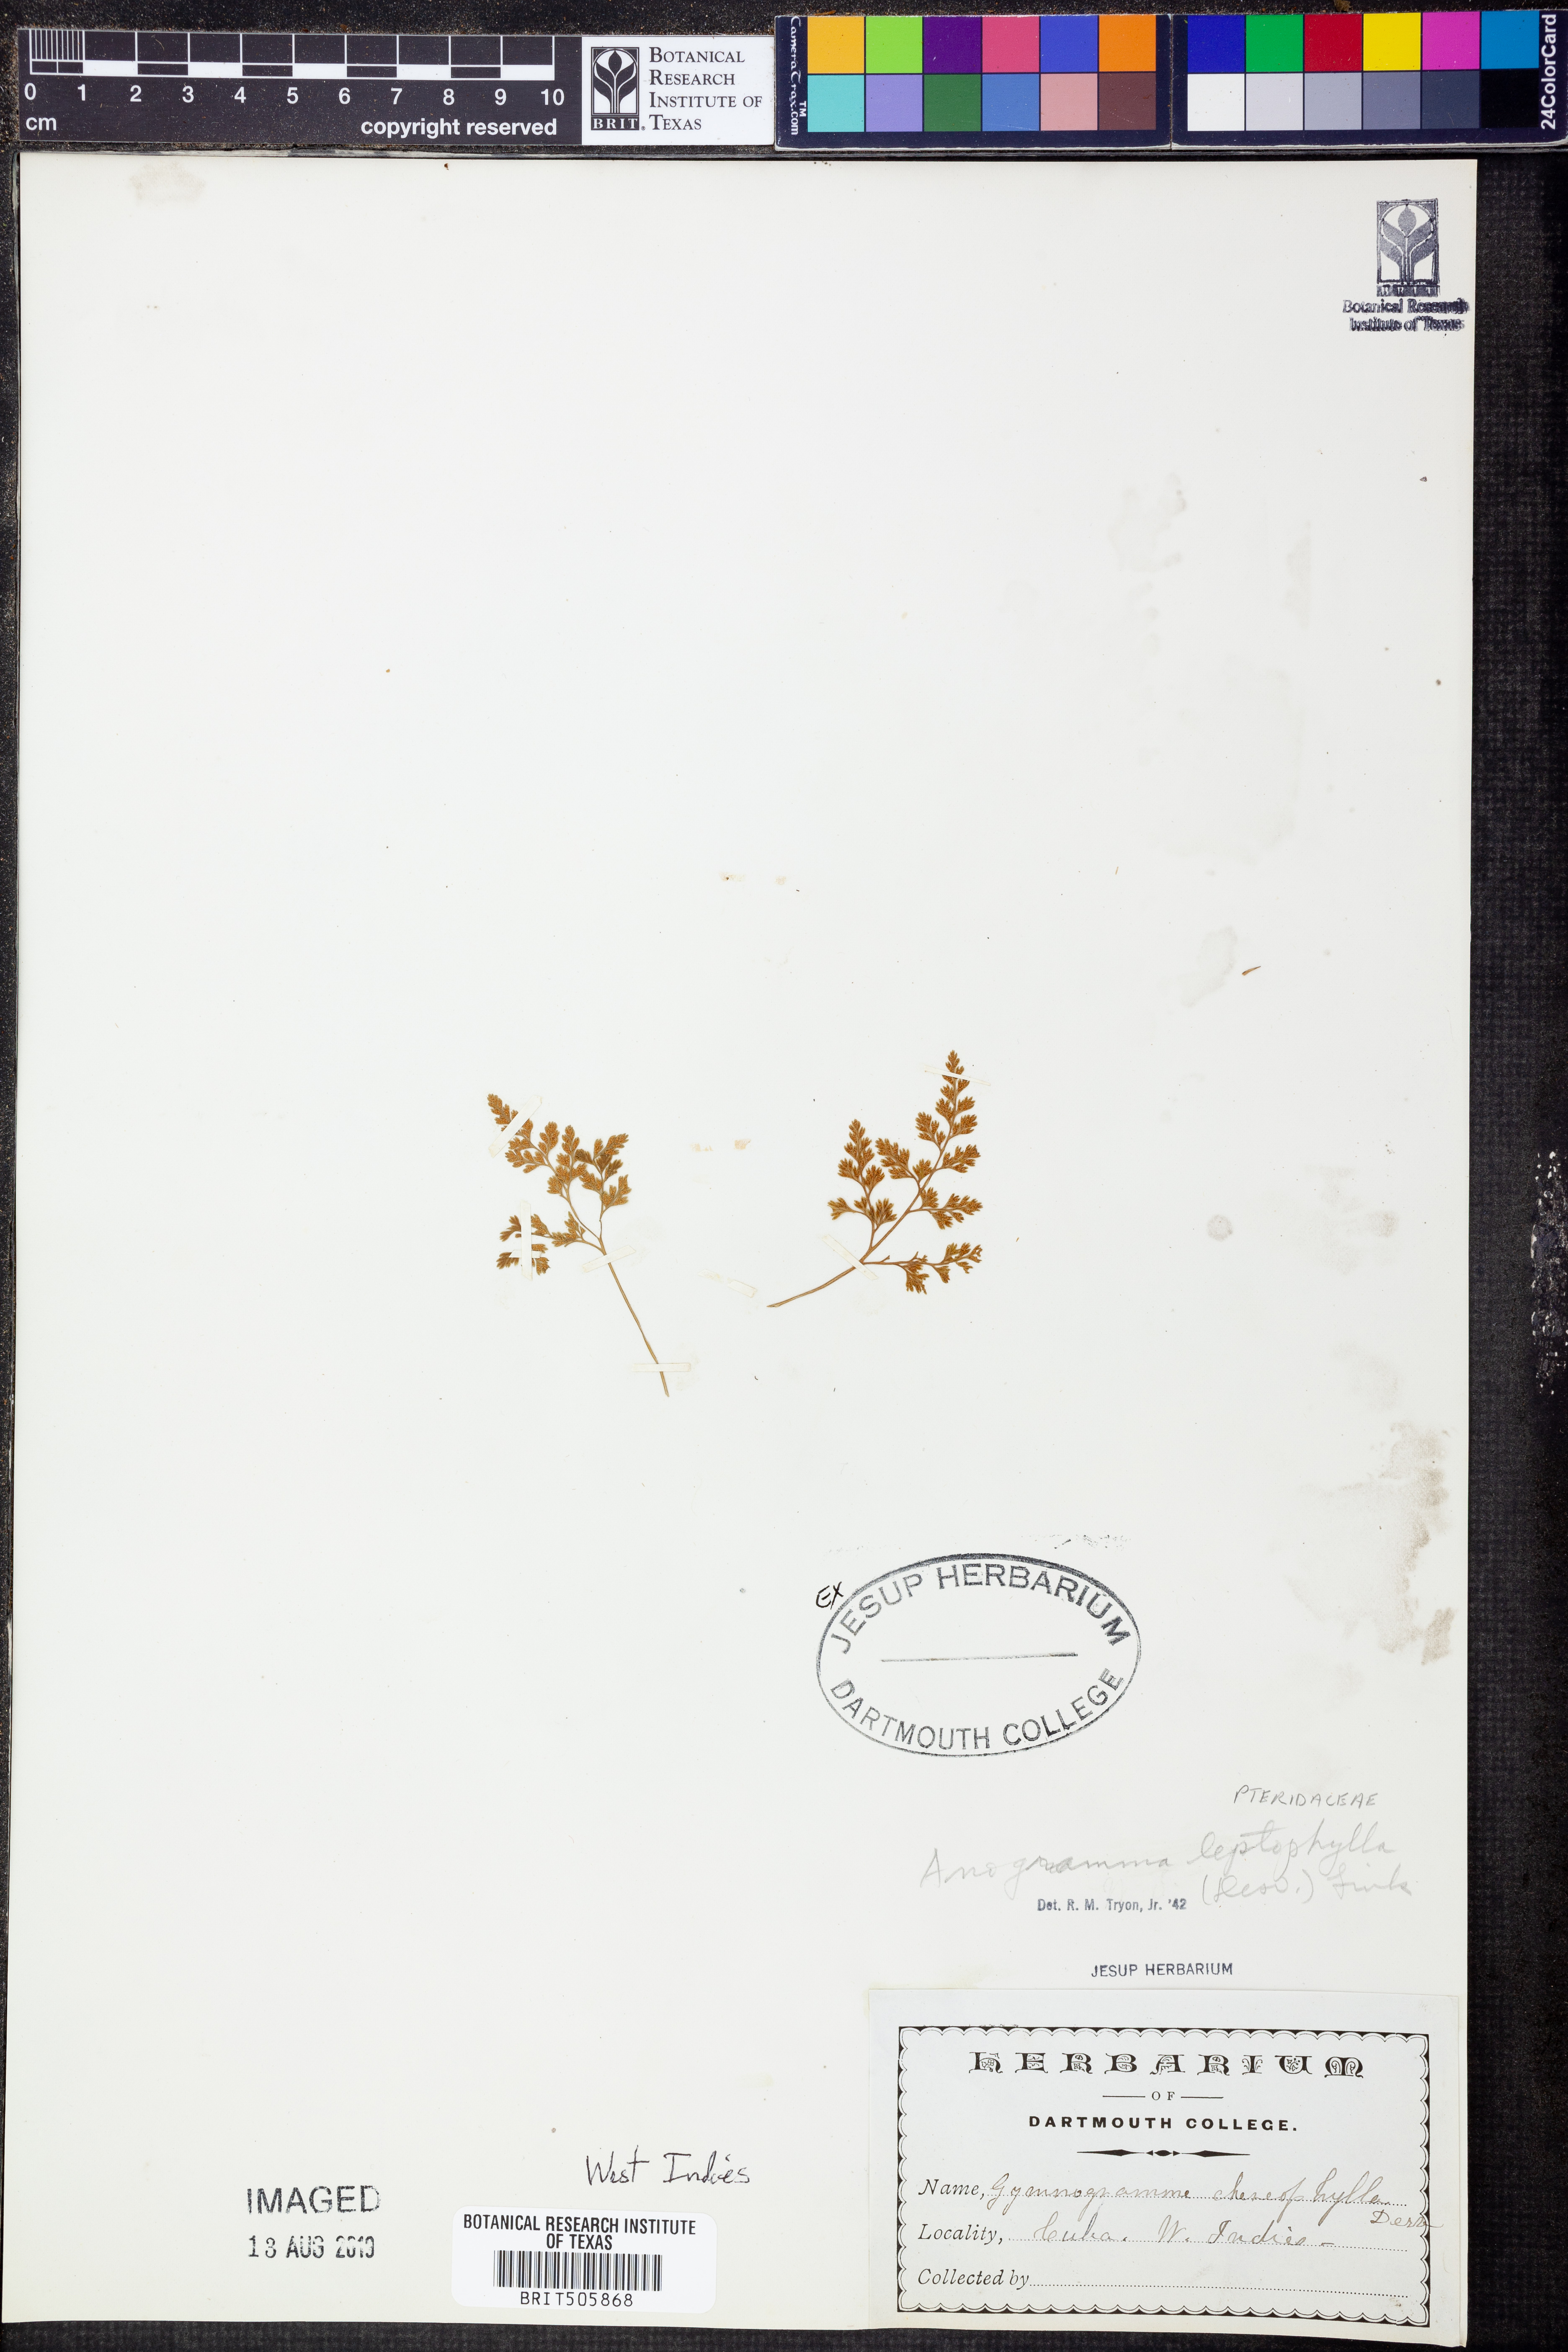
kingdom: Plantae
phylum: Tracheophyta
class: Polypodiopsida
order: Polypodiales
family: Pteridaceae
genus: Anogramma
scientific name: Anogramma leptophylla
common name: Jersey fern
